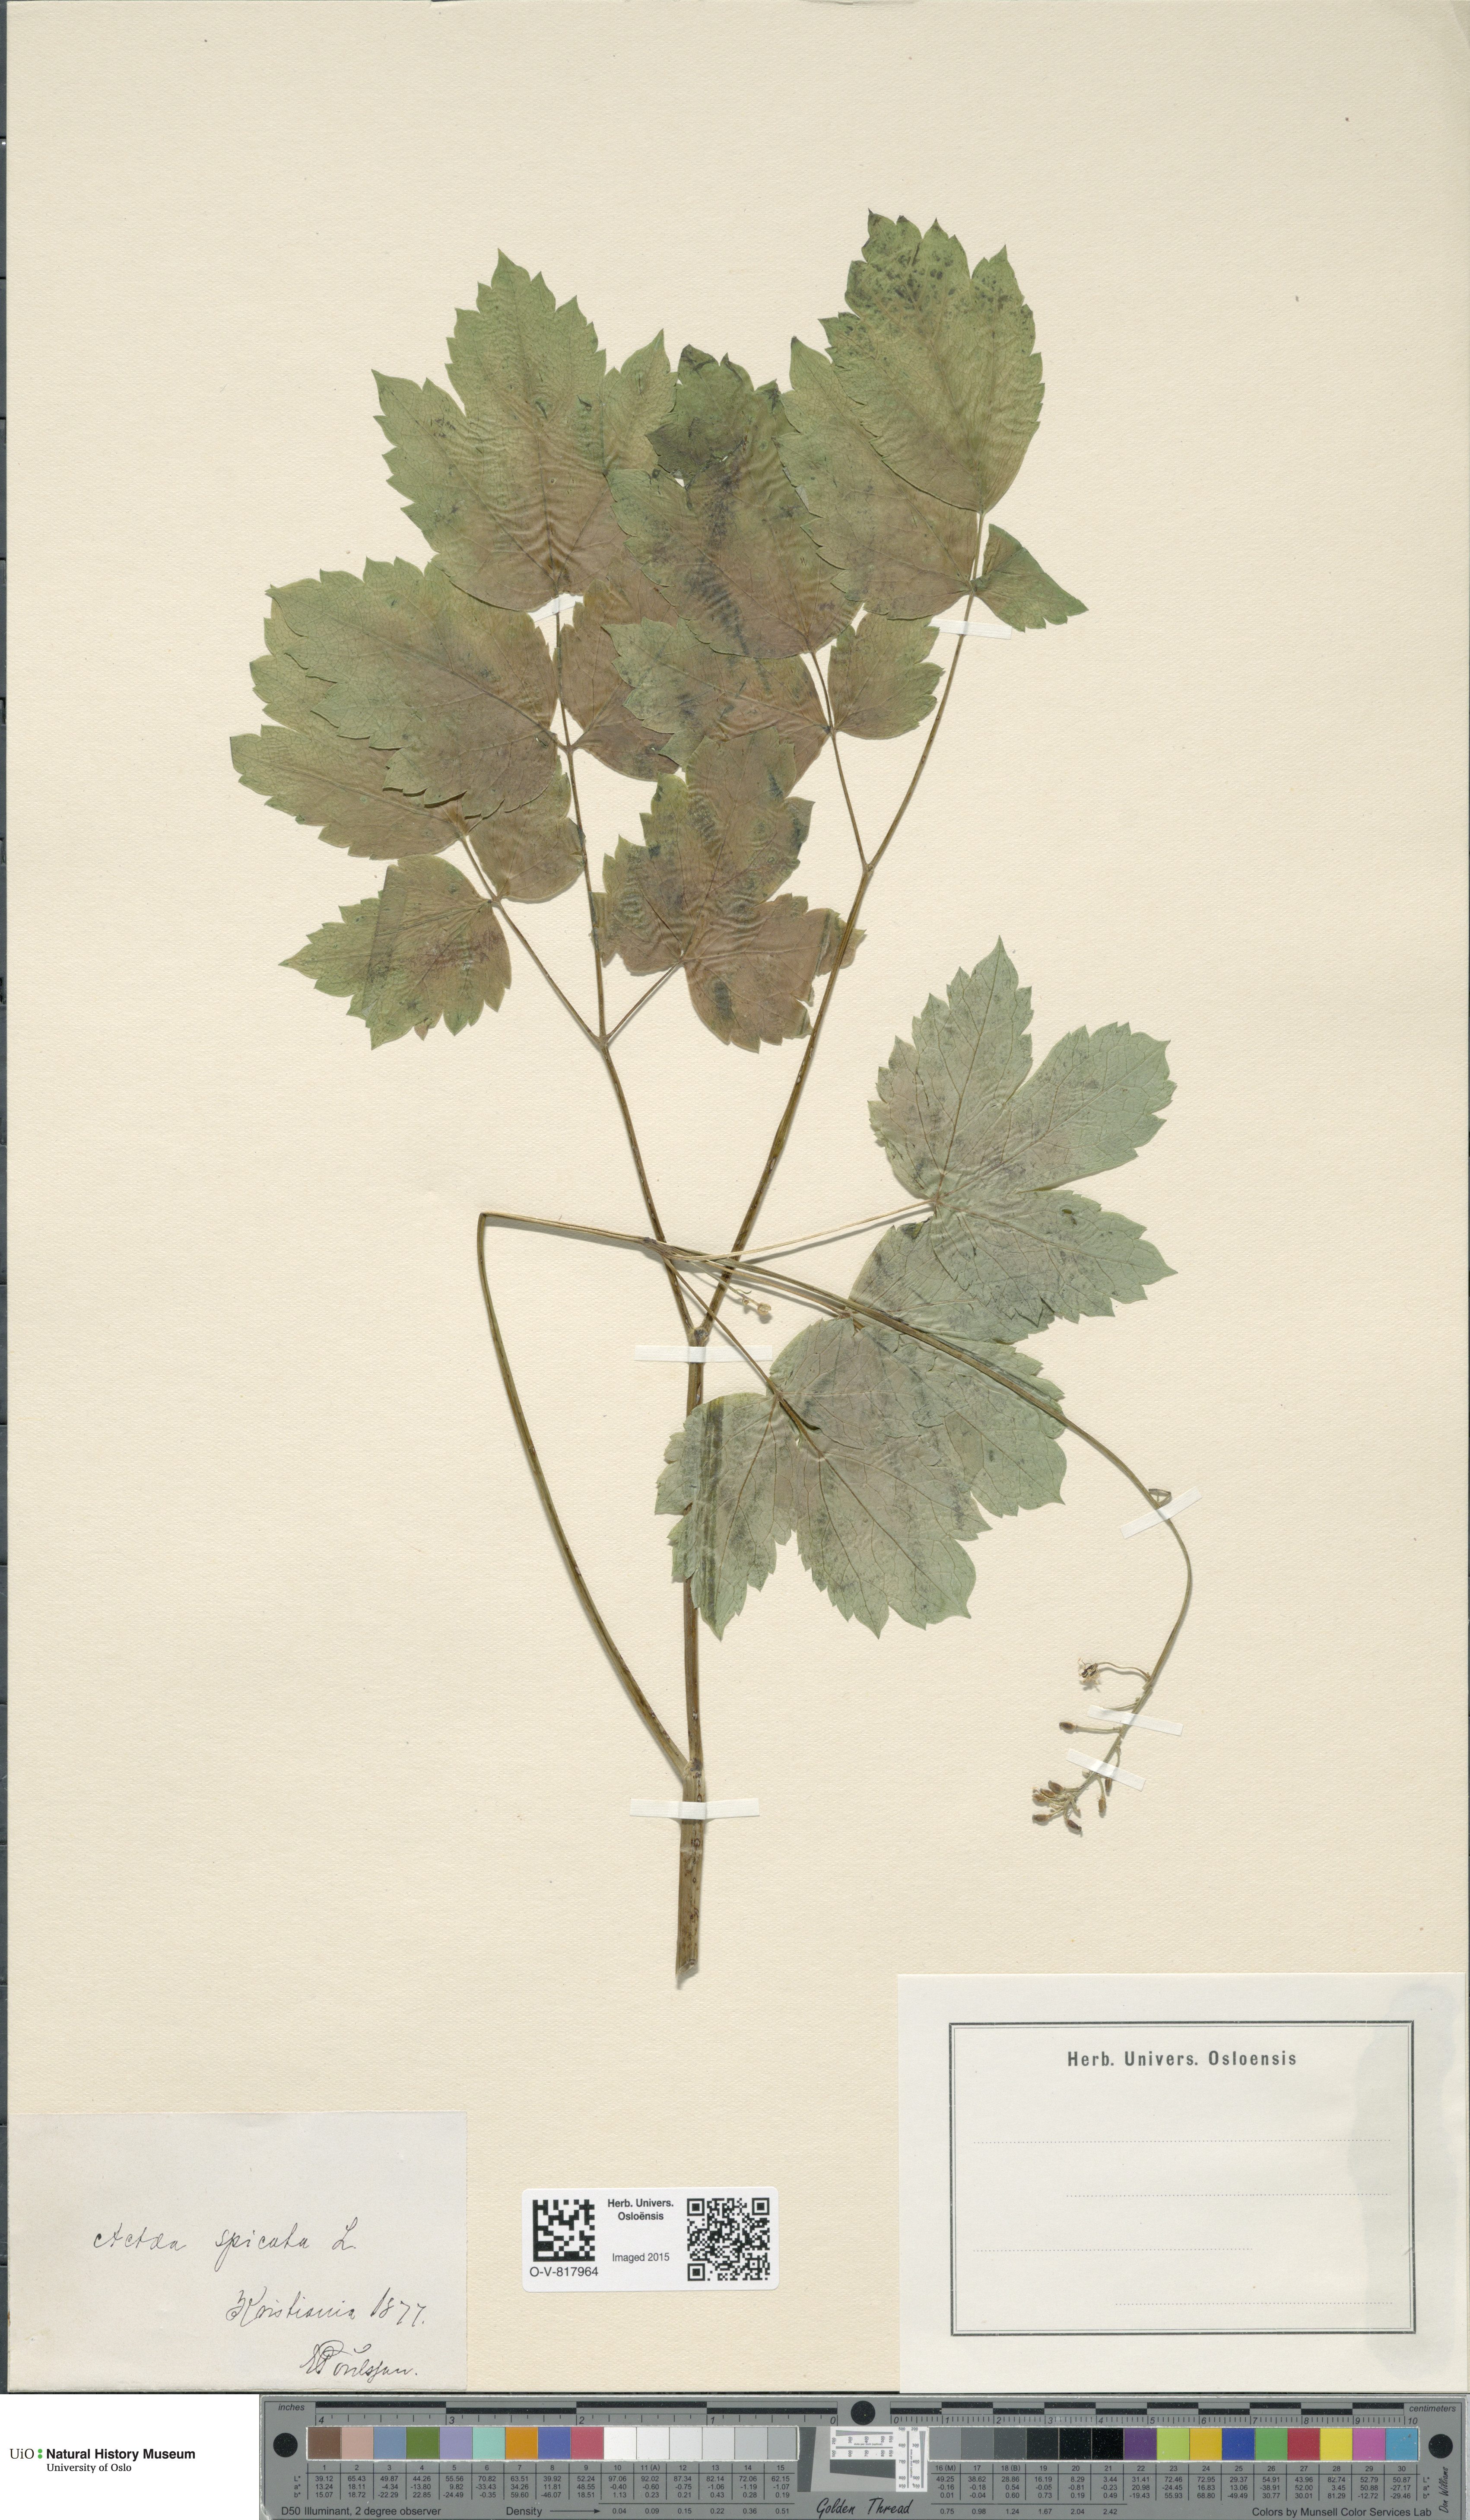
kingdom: Plantae
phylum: Tracheophyta
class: Magnoliopsida
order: Ranunculales
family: Ranunculaceae
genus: Actaea
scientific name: Actaea spicata
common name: Baneberry
